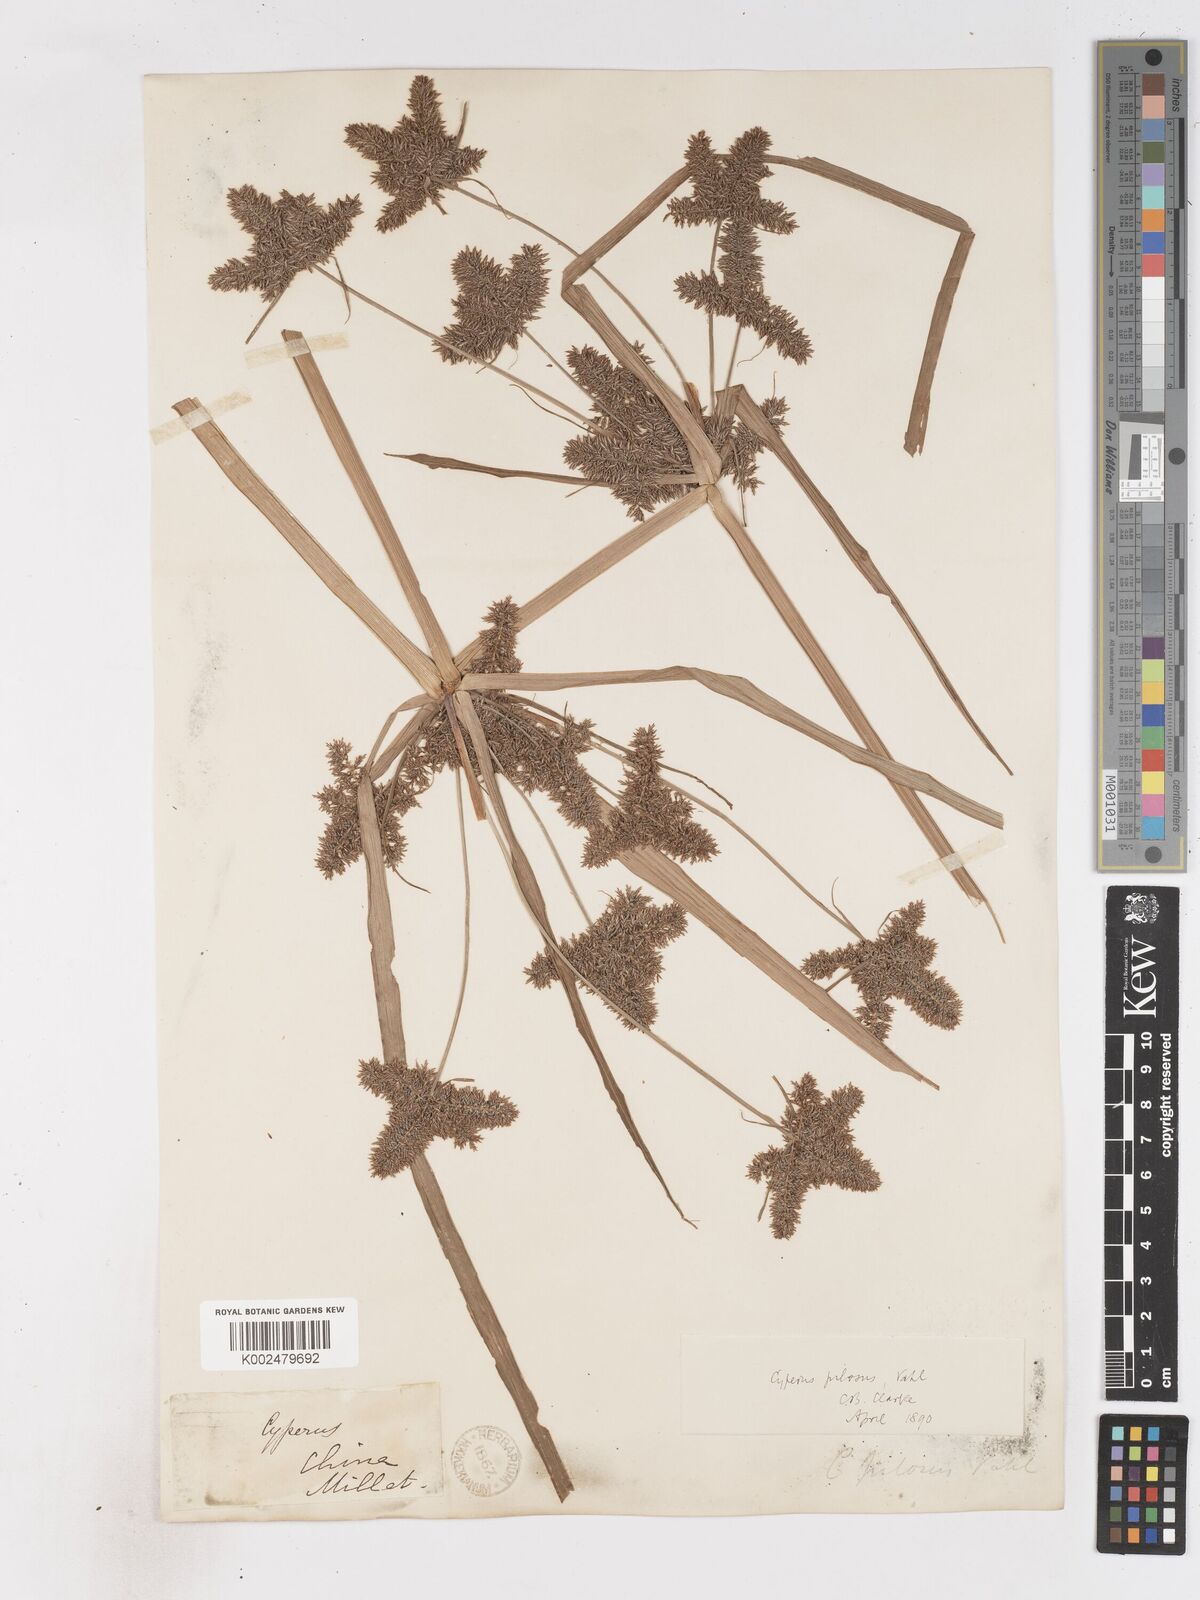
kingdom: Plantae
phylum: Tracheophyta
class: Liliopsida
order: Poales
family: Cyperaceae
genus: Cyperus
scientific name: Cyperus pilosus
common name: Fuzzy flatsedge
